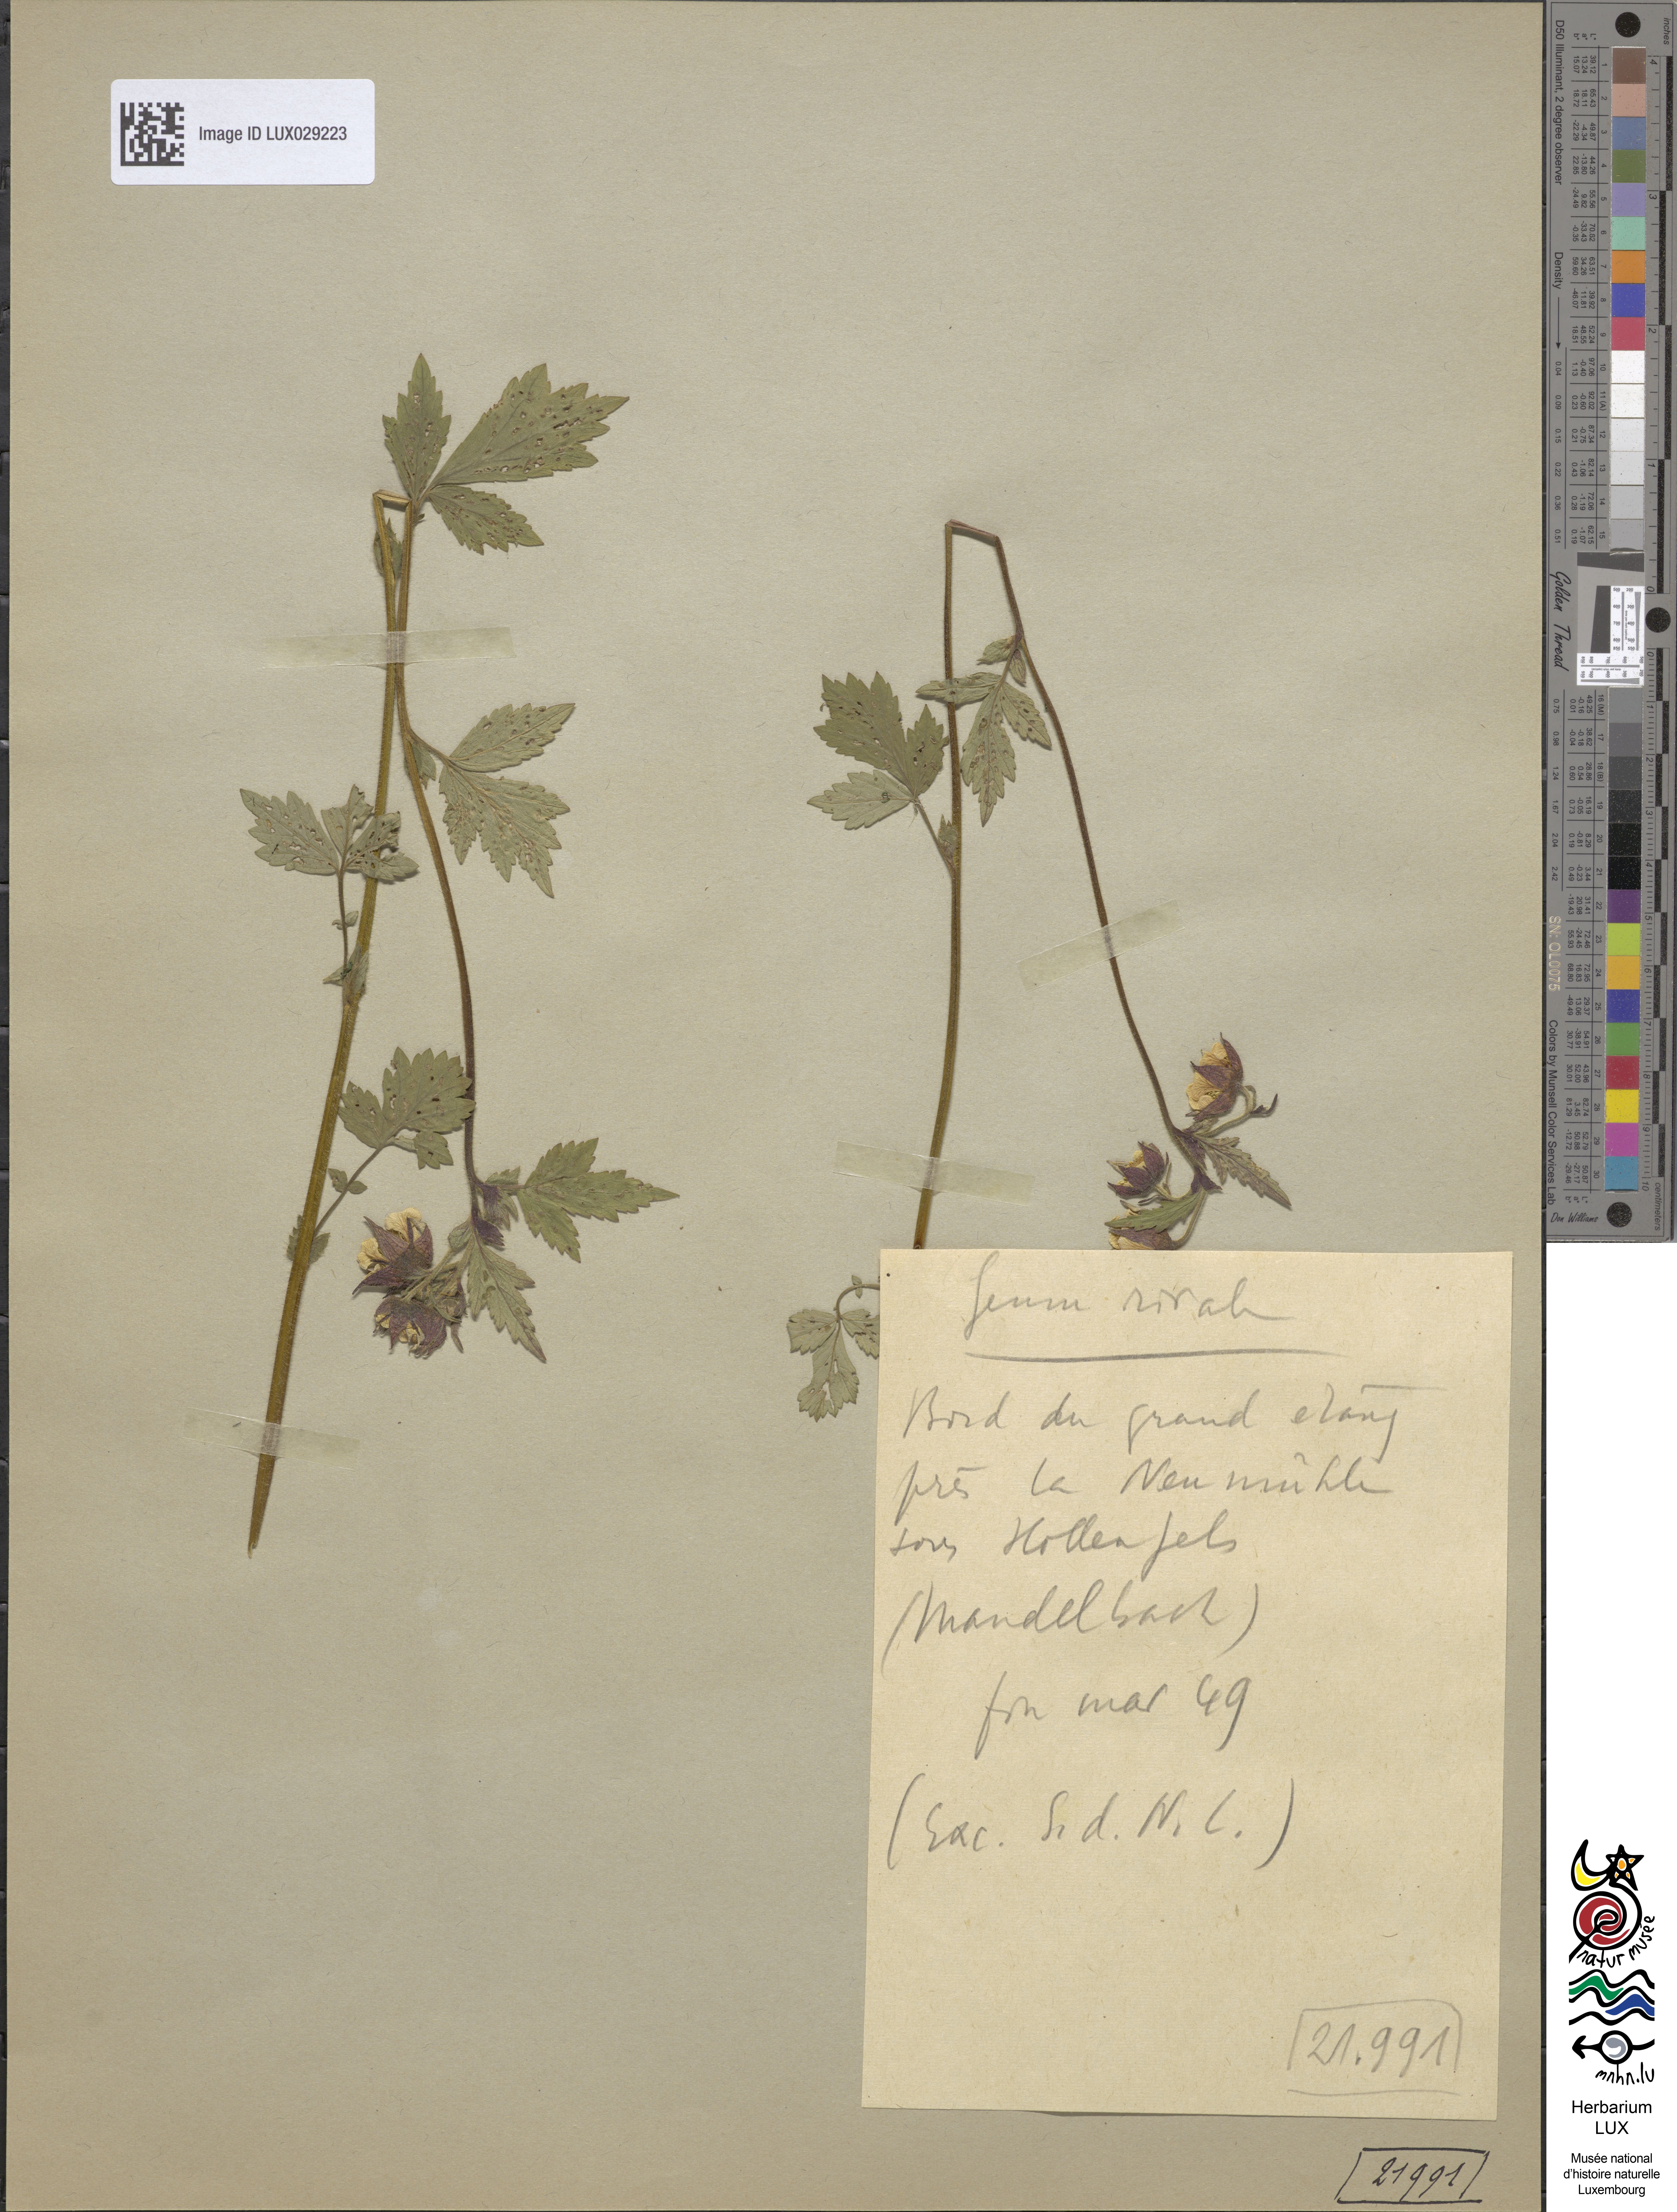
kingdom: Plantae
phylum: Tracheophyta
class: Magnoliopsida
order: Rosales
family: Rosaceae
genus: Geum
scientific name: Geum rivale
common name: Water avens
